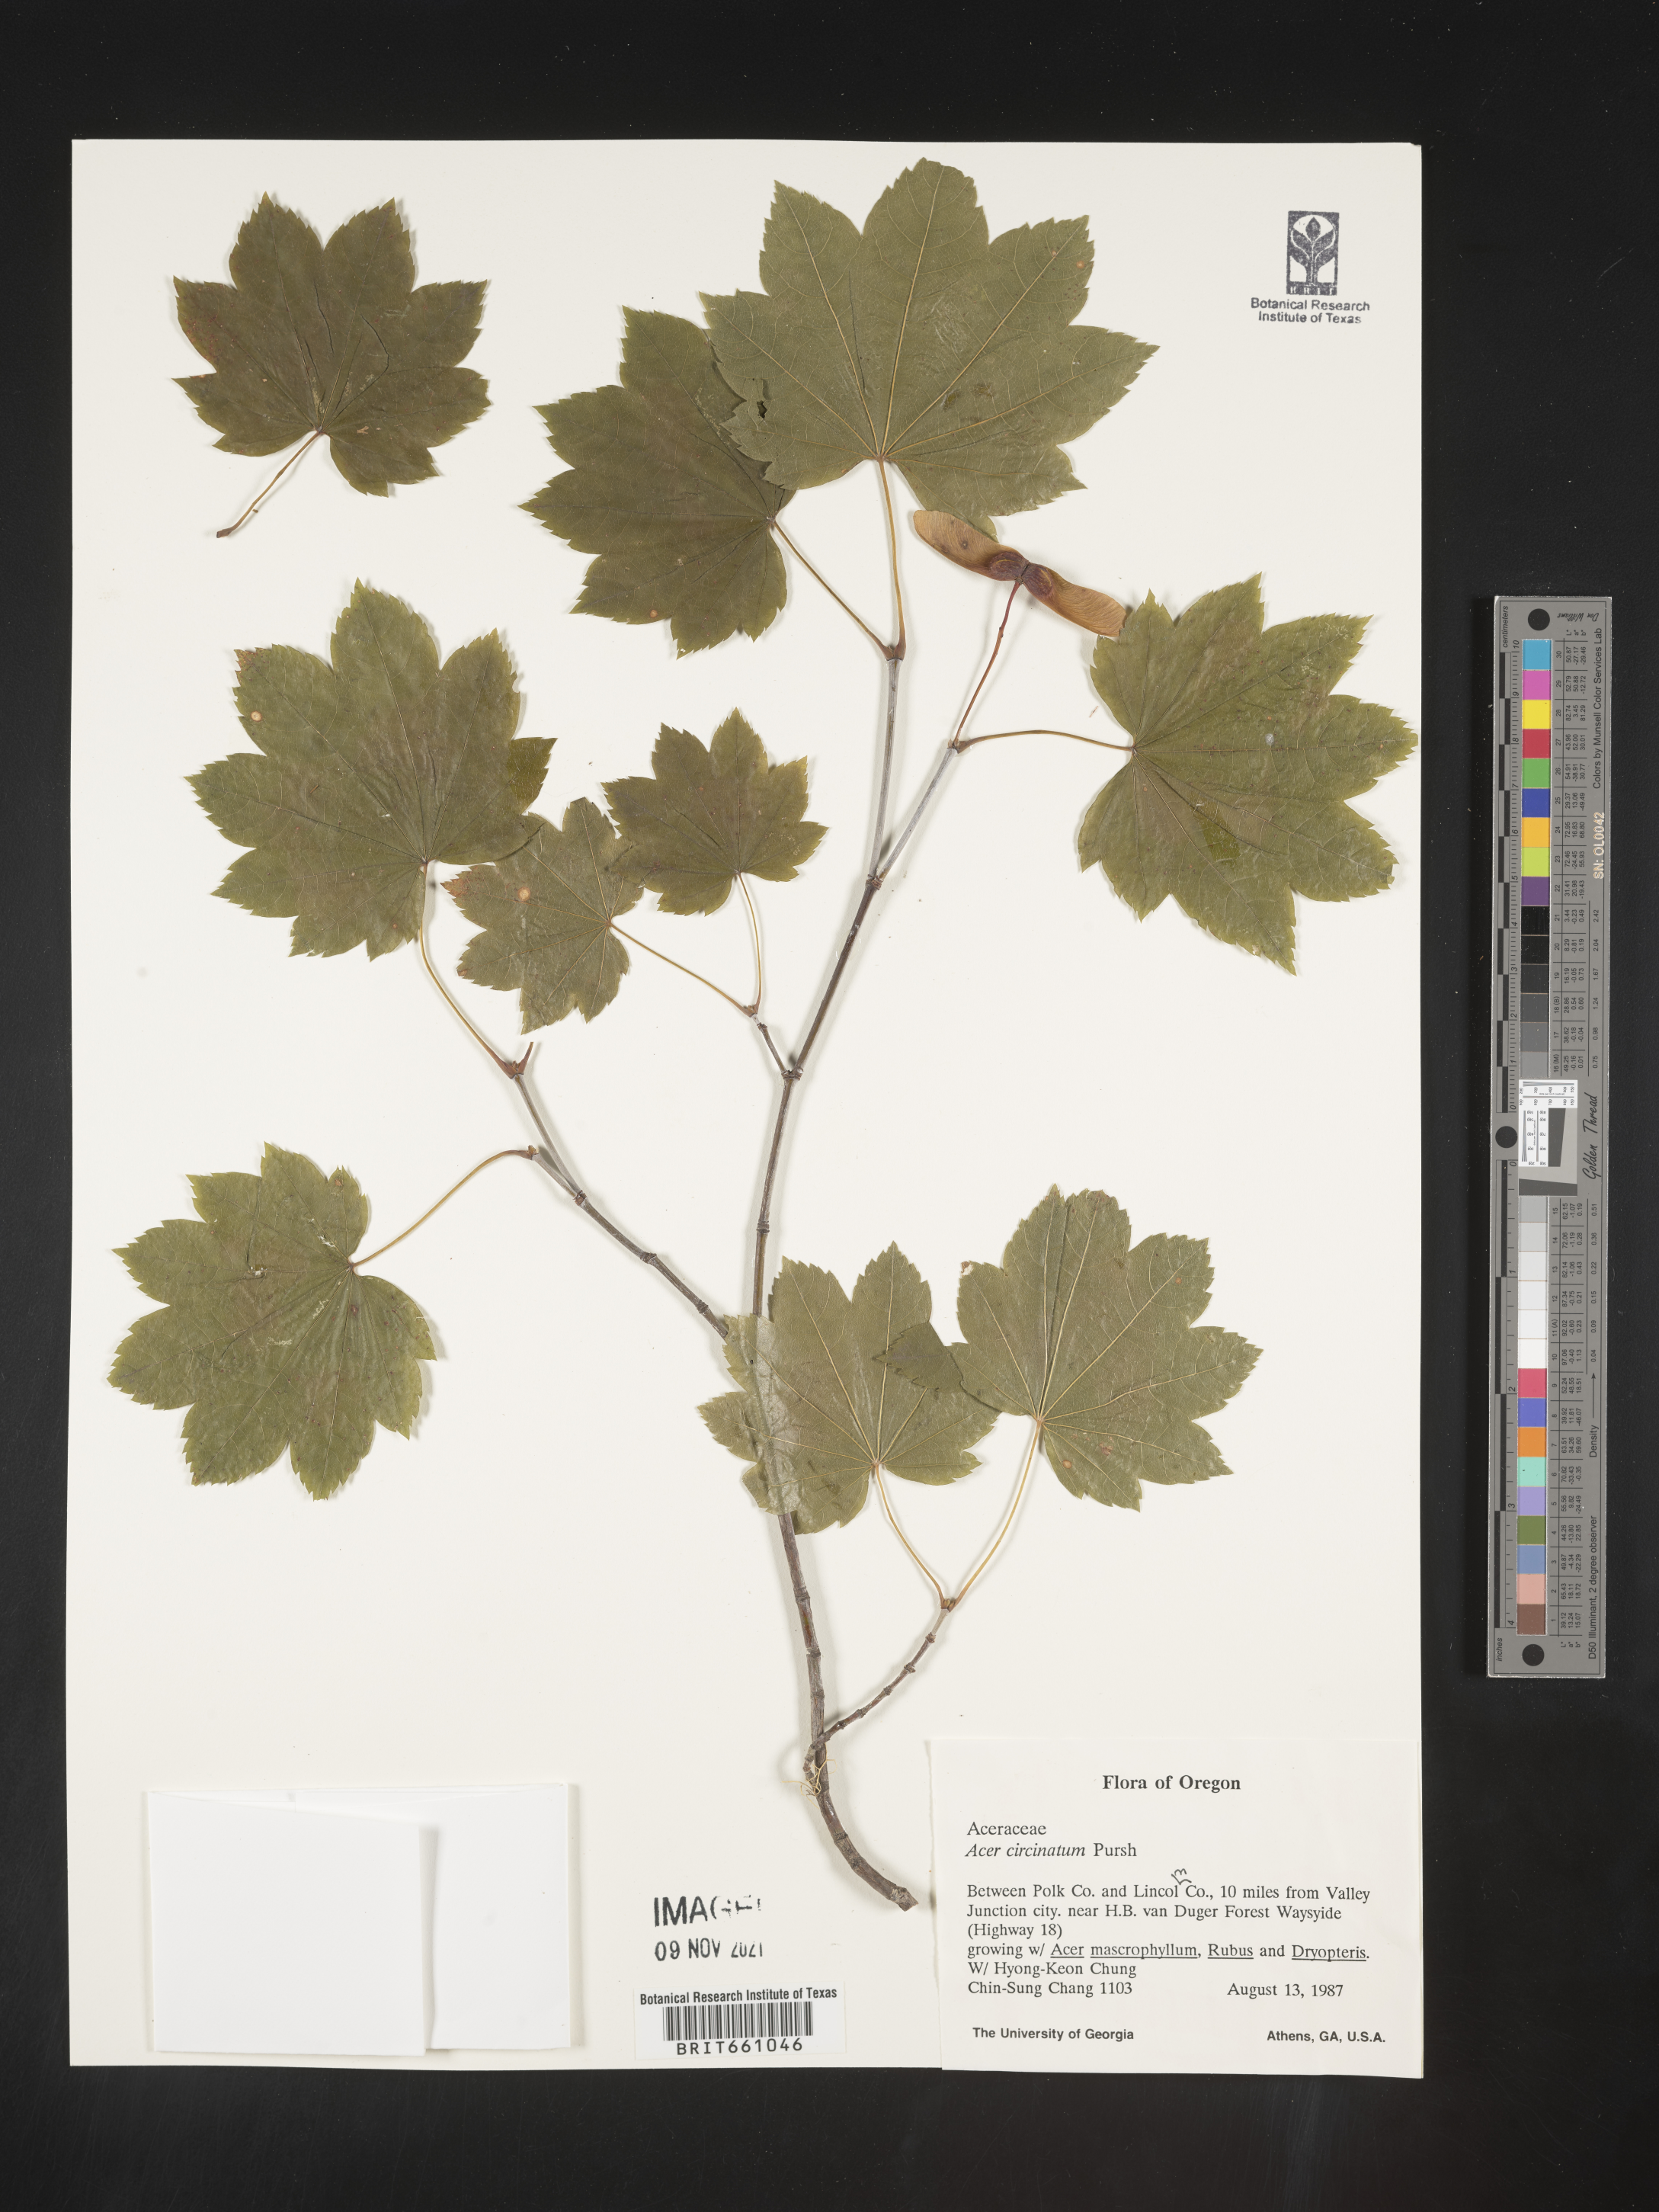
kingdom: Plantae
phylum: Tracheophyta
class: Magnoliopsida
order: Sapindales
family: Sapindaceae
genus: Acer
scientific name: Acer circinatum
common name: Vine maple
